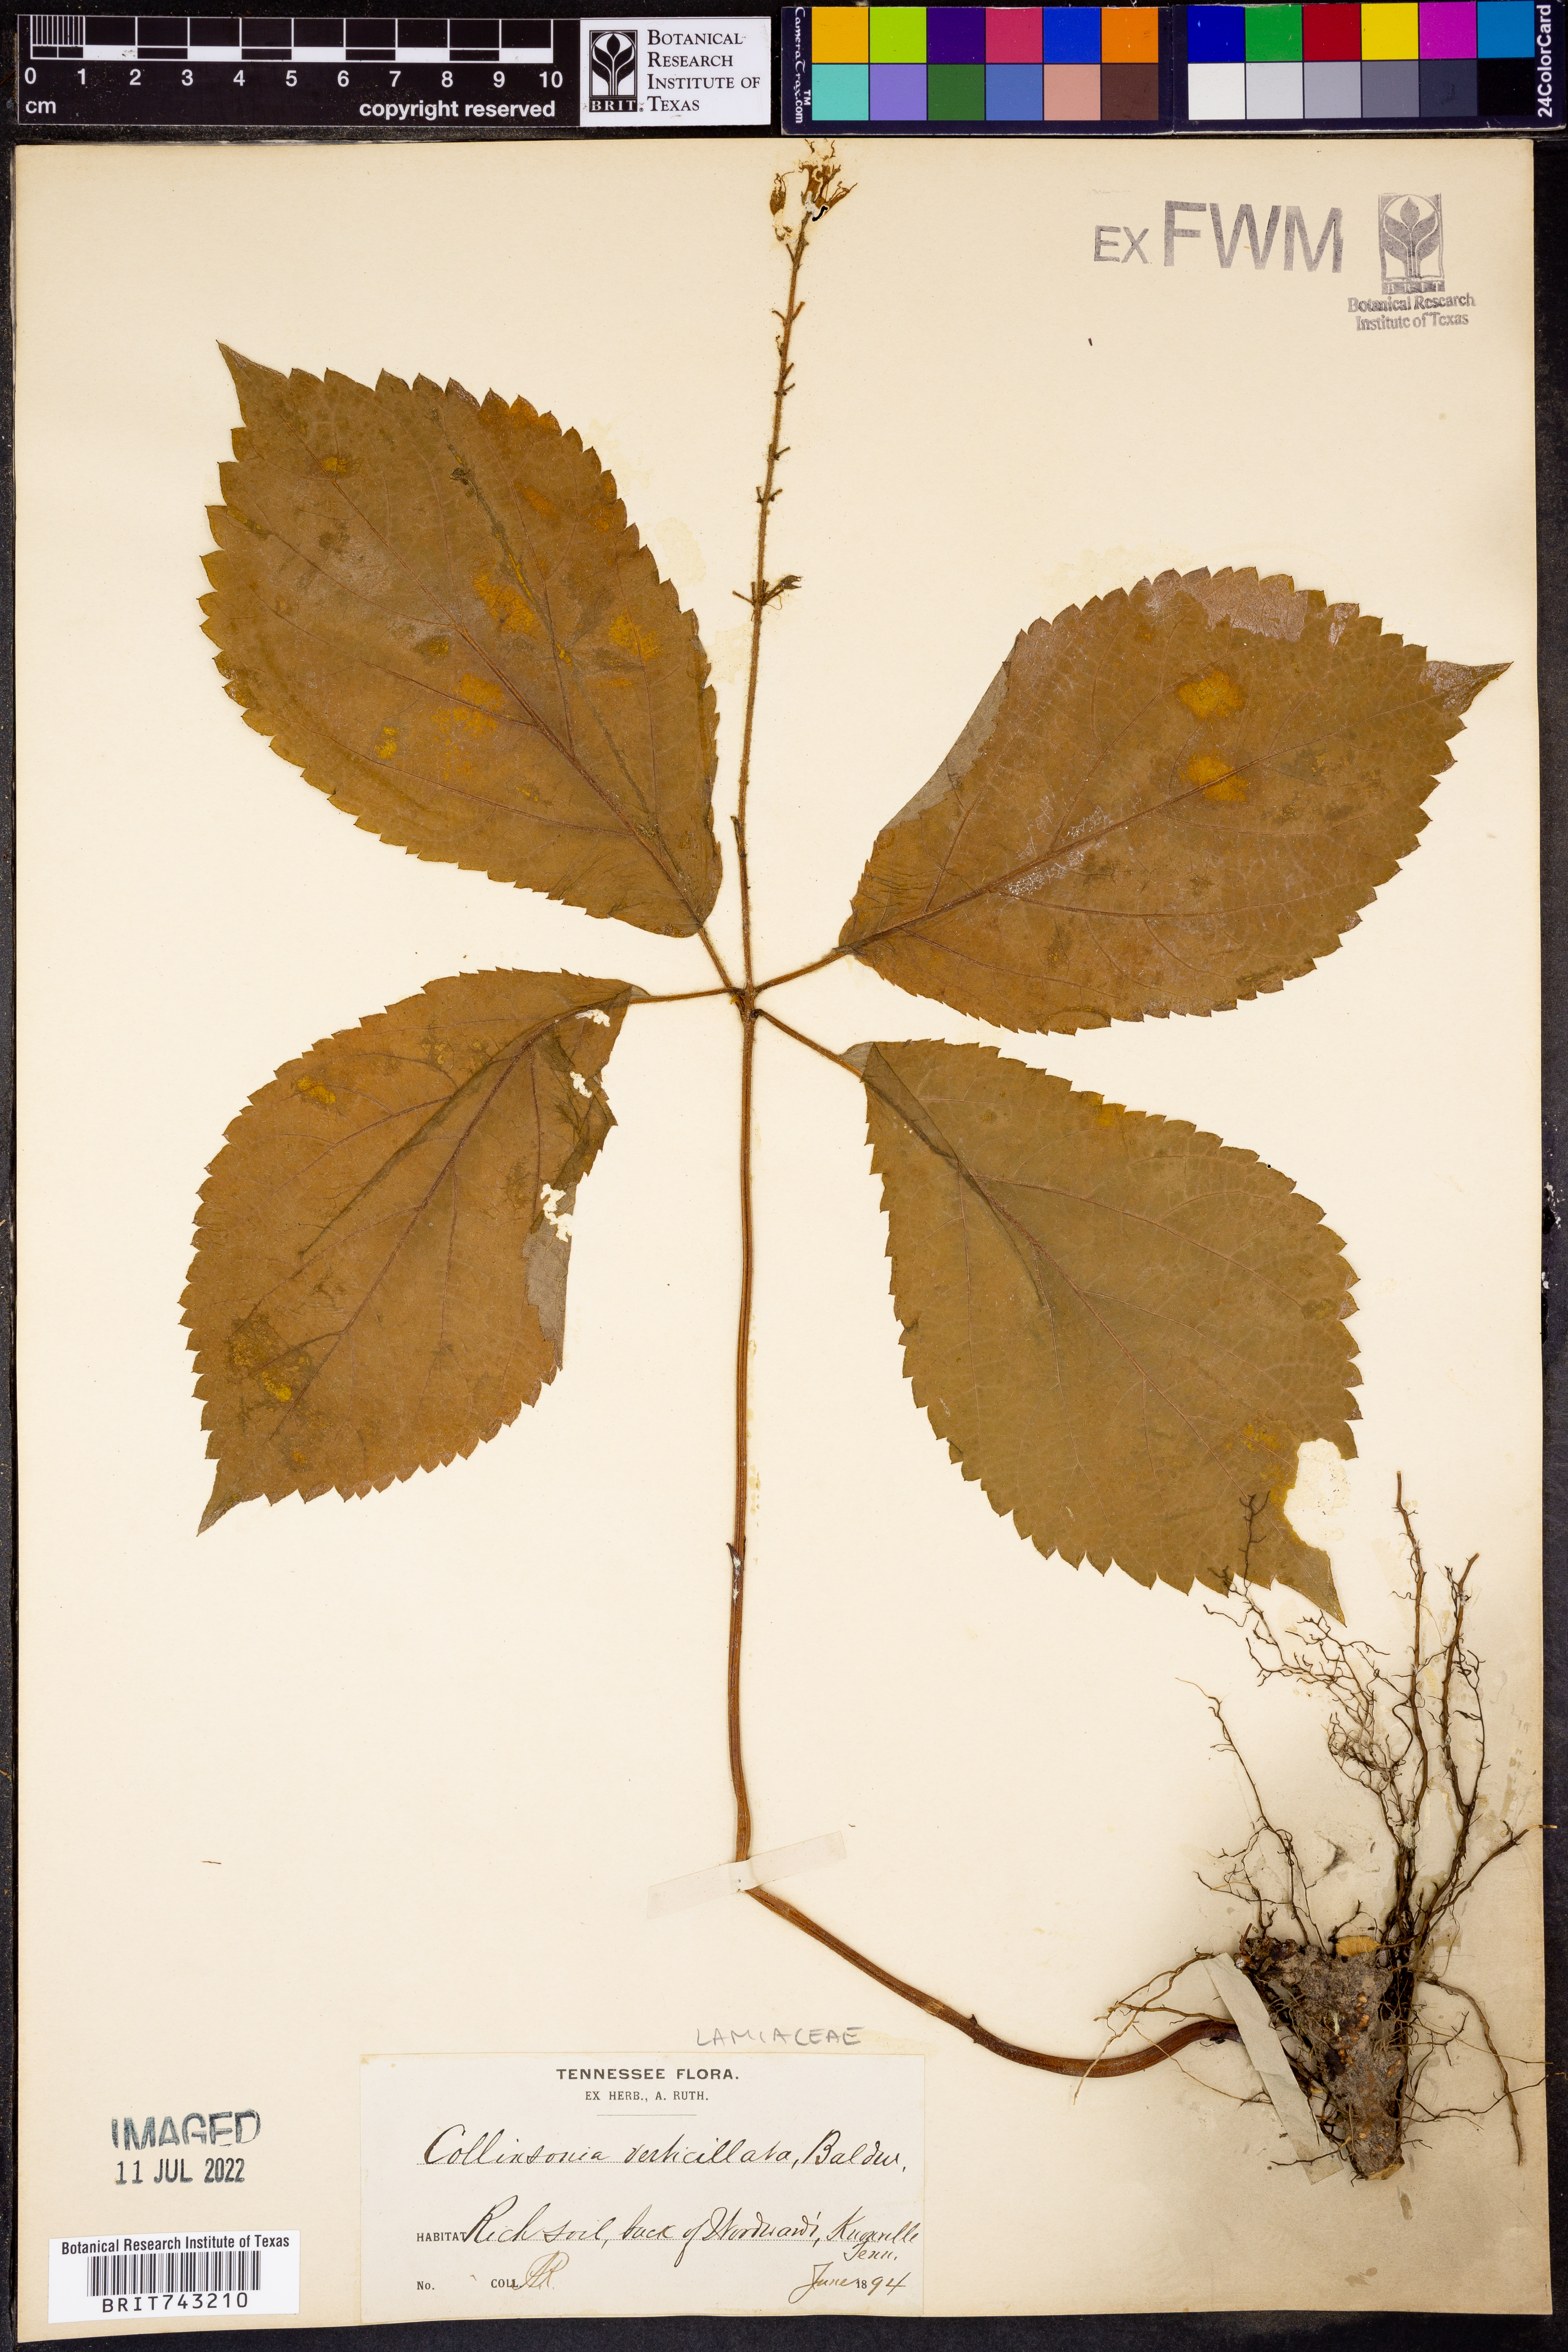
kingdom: Plantae
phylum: Tracheophyta
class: Magnoliopsida
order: Lamiales
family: Lamiaceae
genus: Collinsonia
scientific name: Collinsonia
